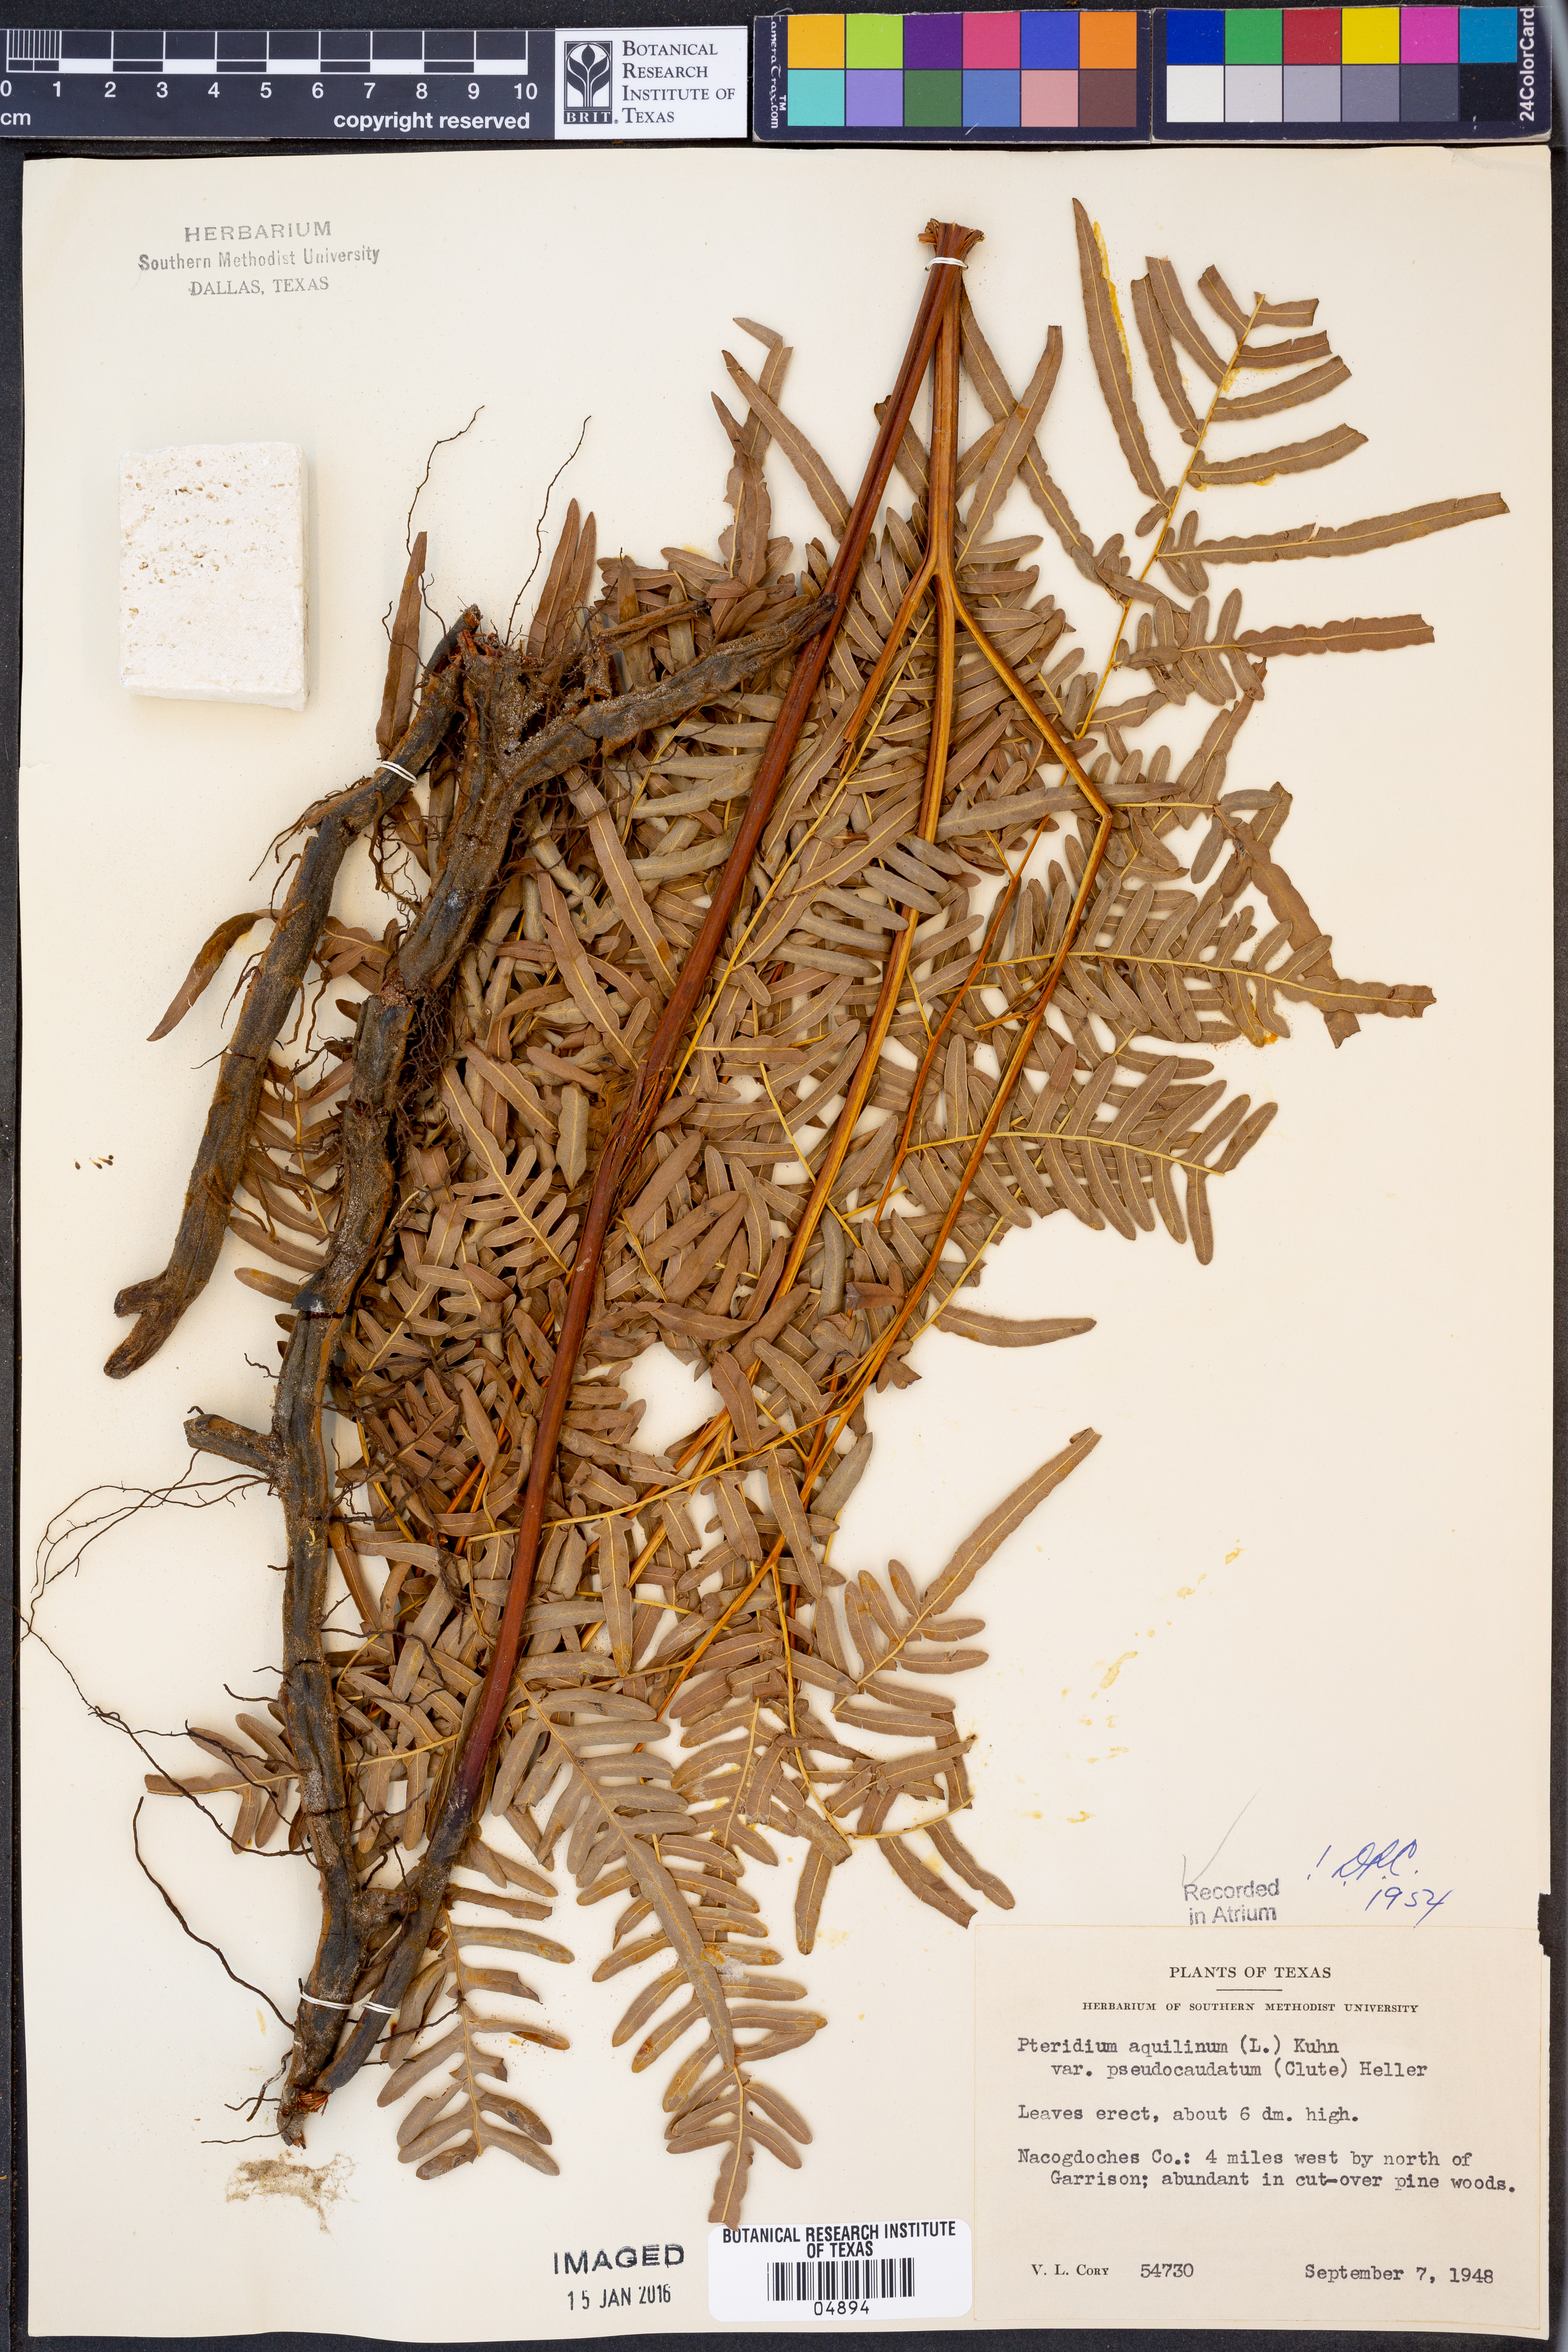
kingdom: Plantae
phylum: Tracheophyta
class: Polypodiopsida
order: Polypodiales
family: Dennstaedtiaceae
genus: Pteridium
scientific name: Pteridium aquilinum
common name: Bracken
